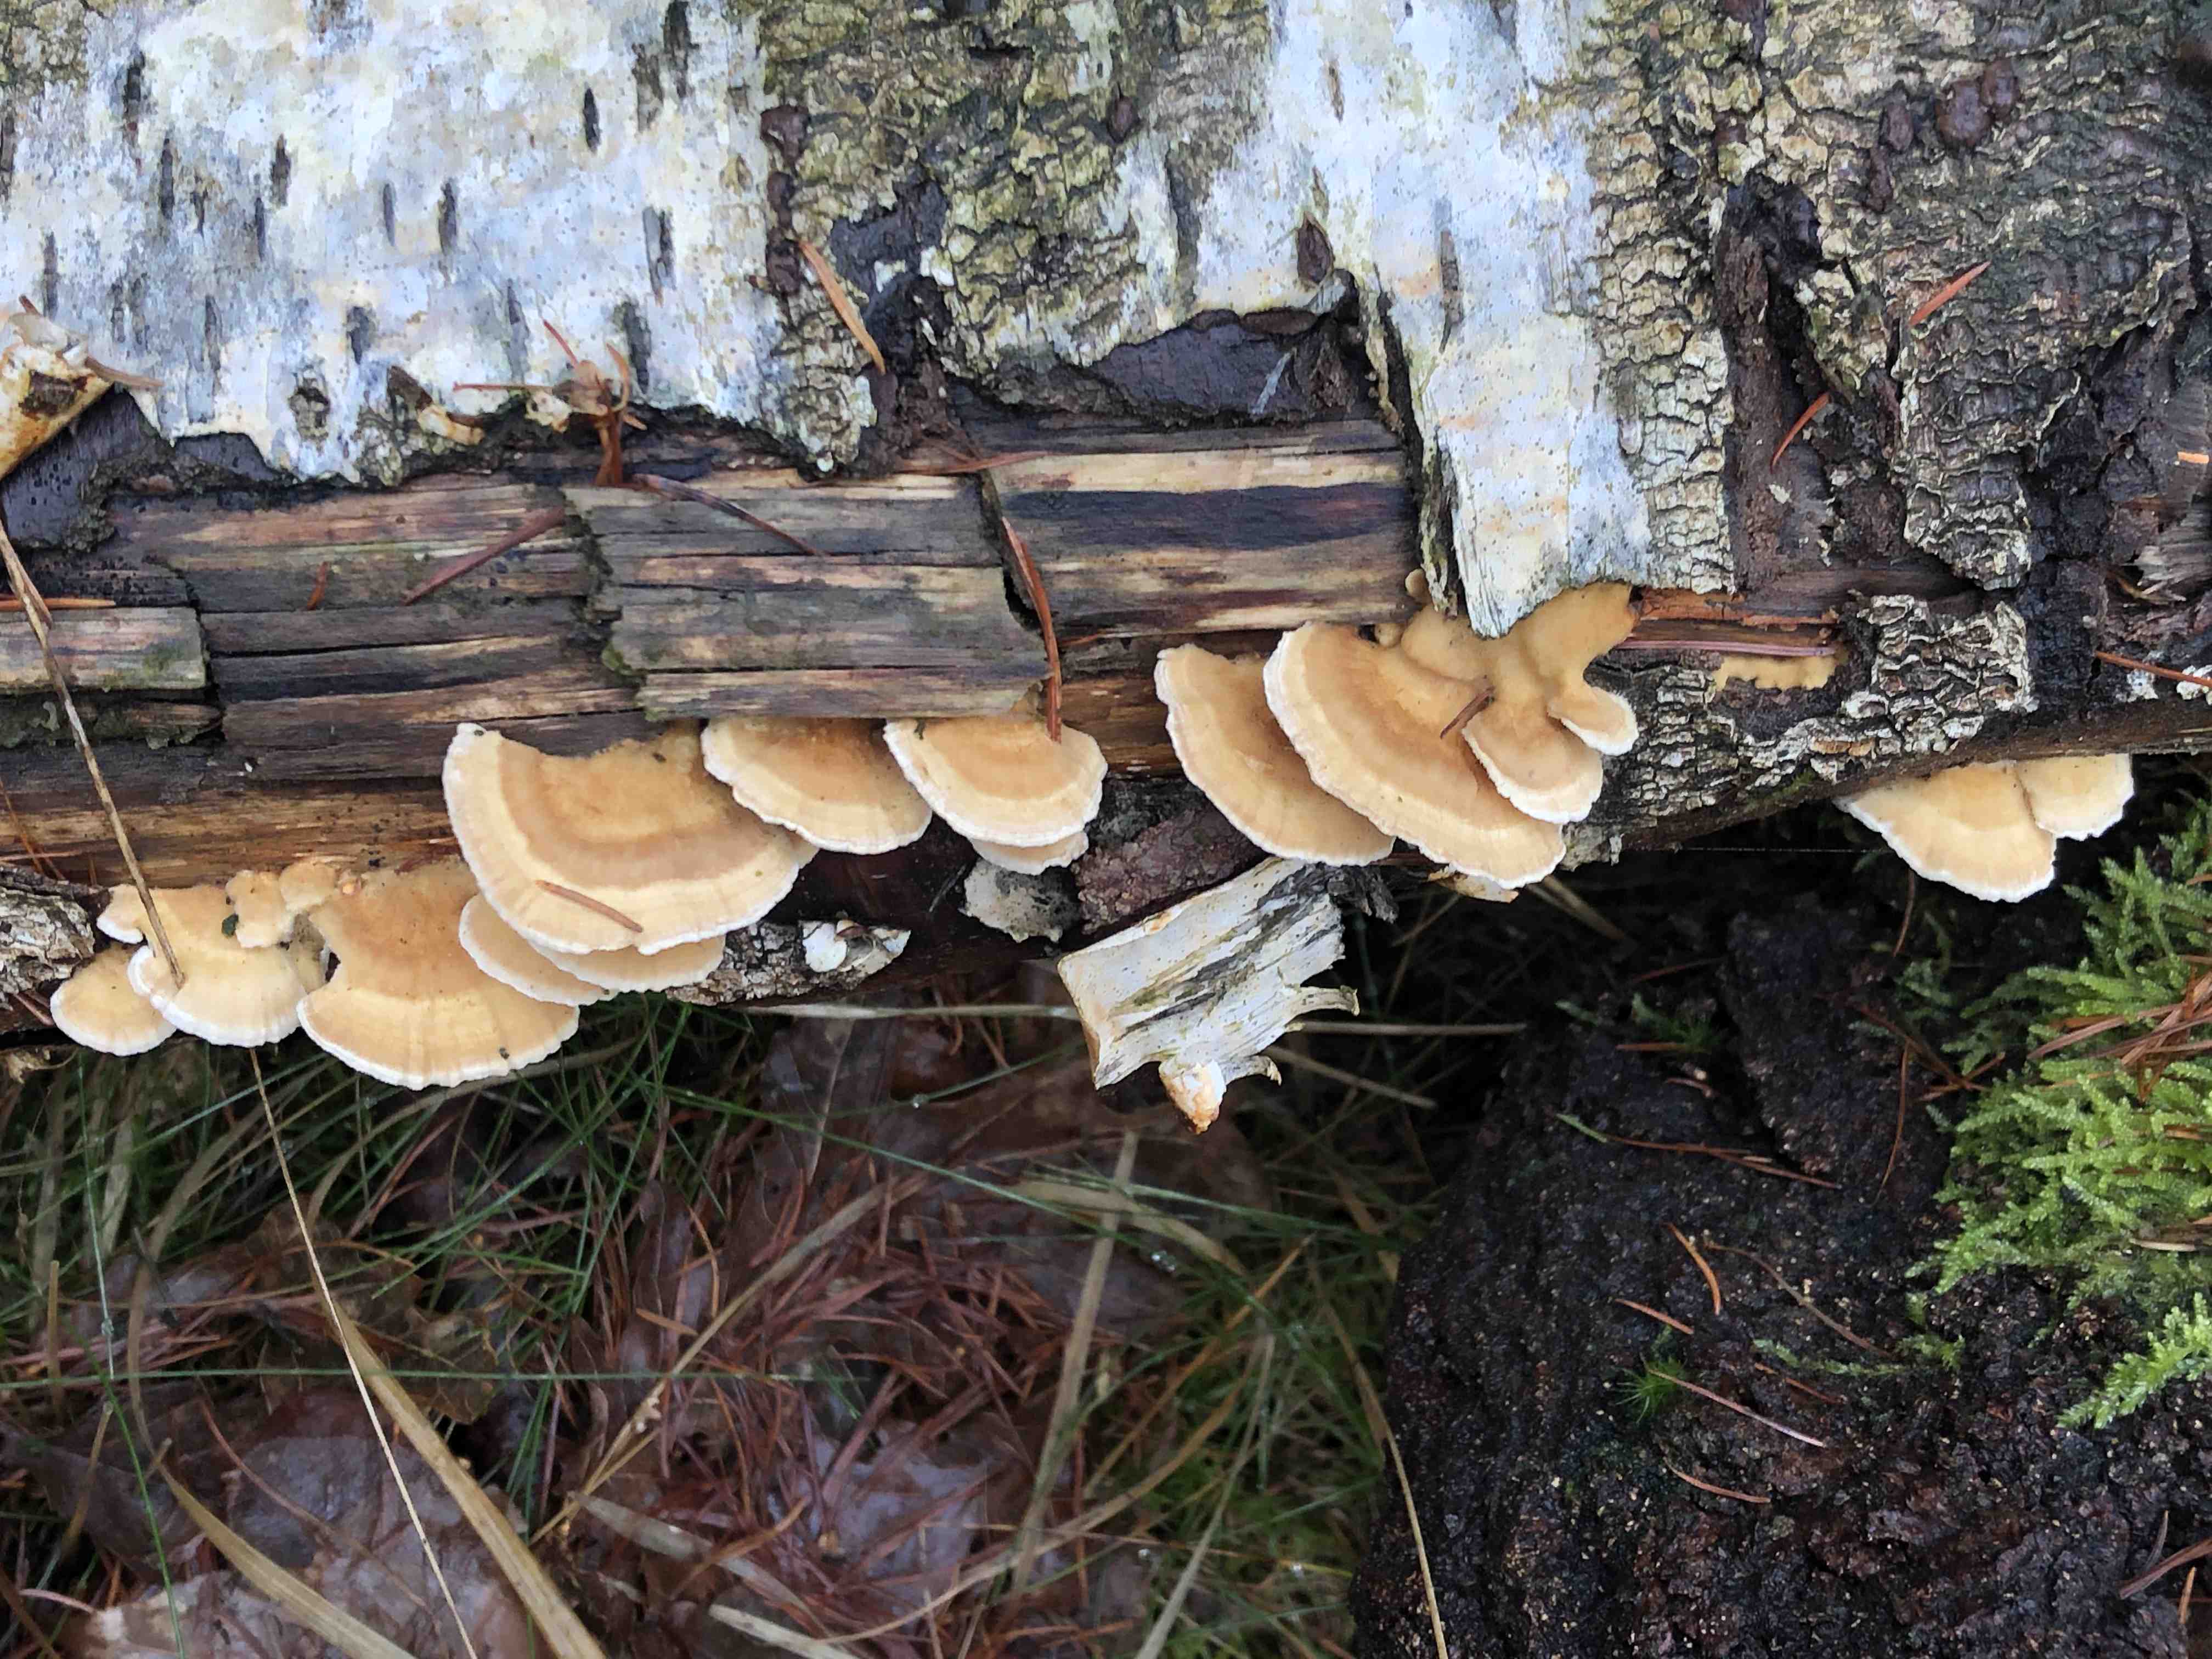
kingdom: Fungi
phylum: Basidiomycota
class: Agaricomycetes
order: Polyporales
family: Polyporaceae
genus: Trametes
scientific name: Trametes ochracea
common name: bæltet læderporesvamp
